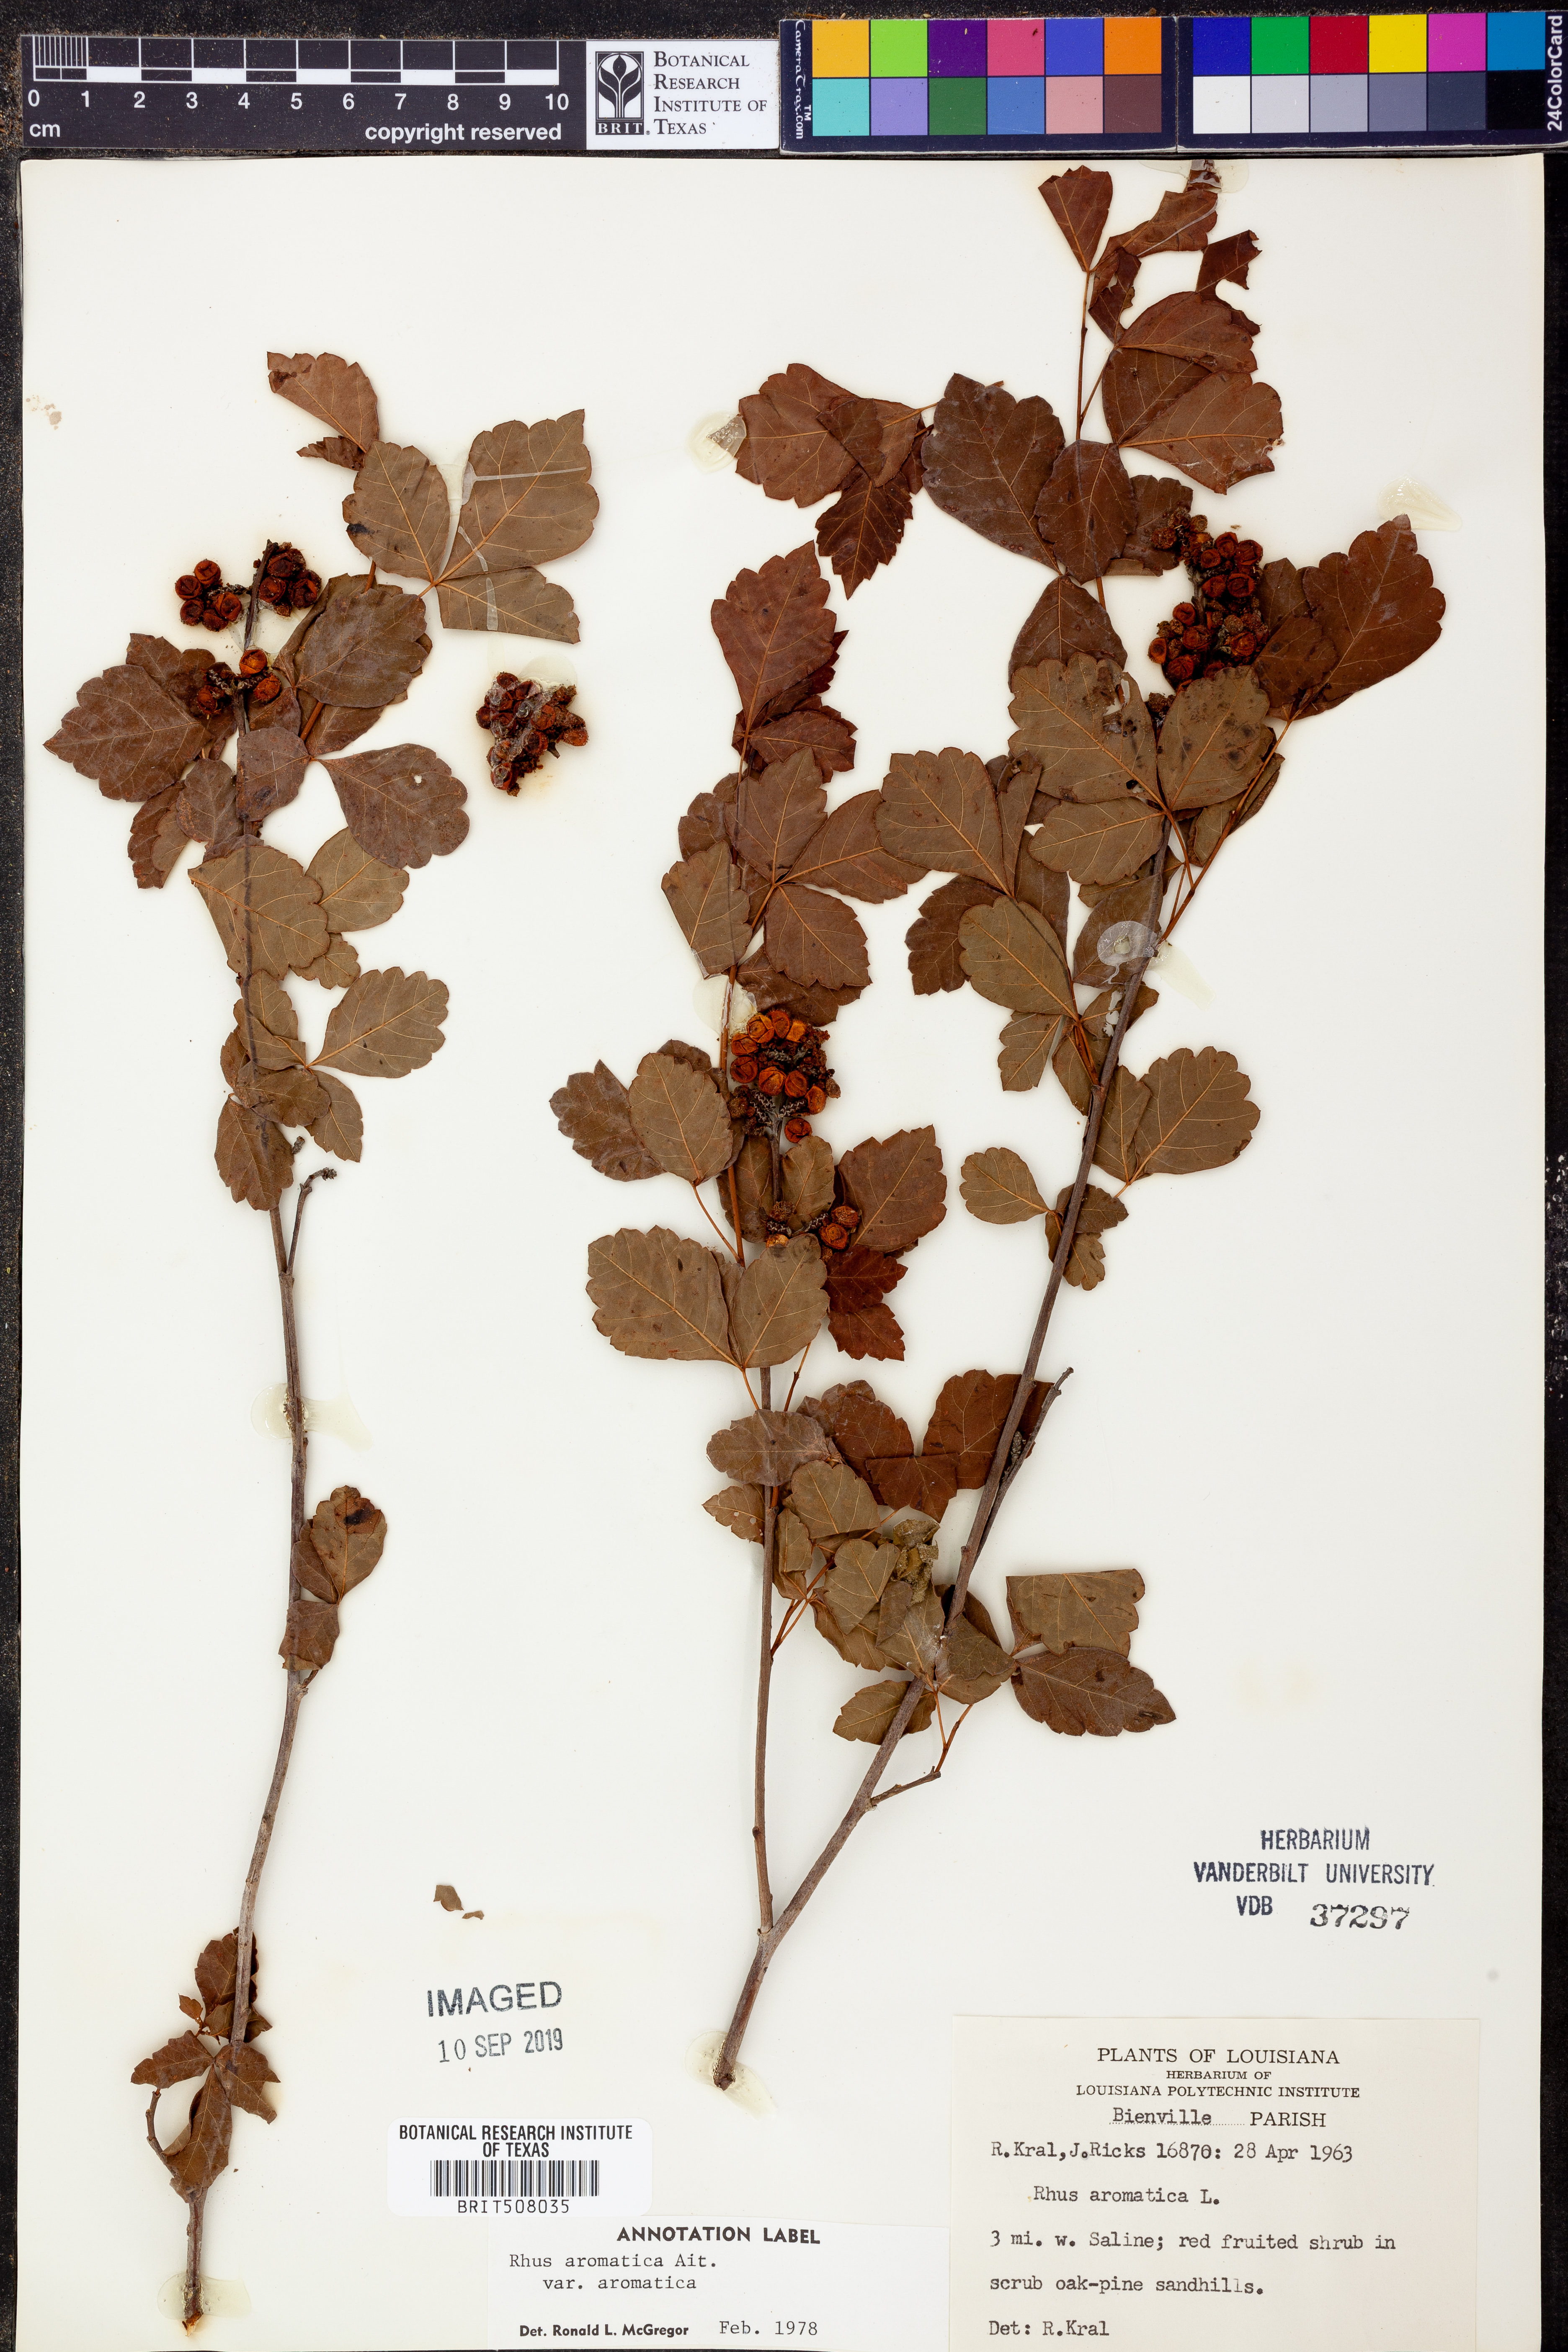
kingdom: Plantae
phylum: Tracheophyta
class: Magnoliopsida
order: Sapindales
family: Anacardiaceae
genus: Rhus
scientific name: Rhus aromatica
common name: Aromatic sumac
